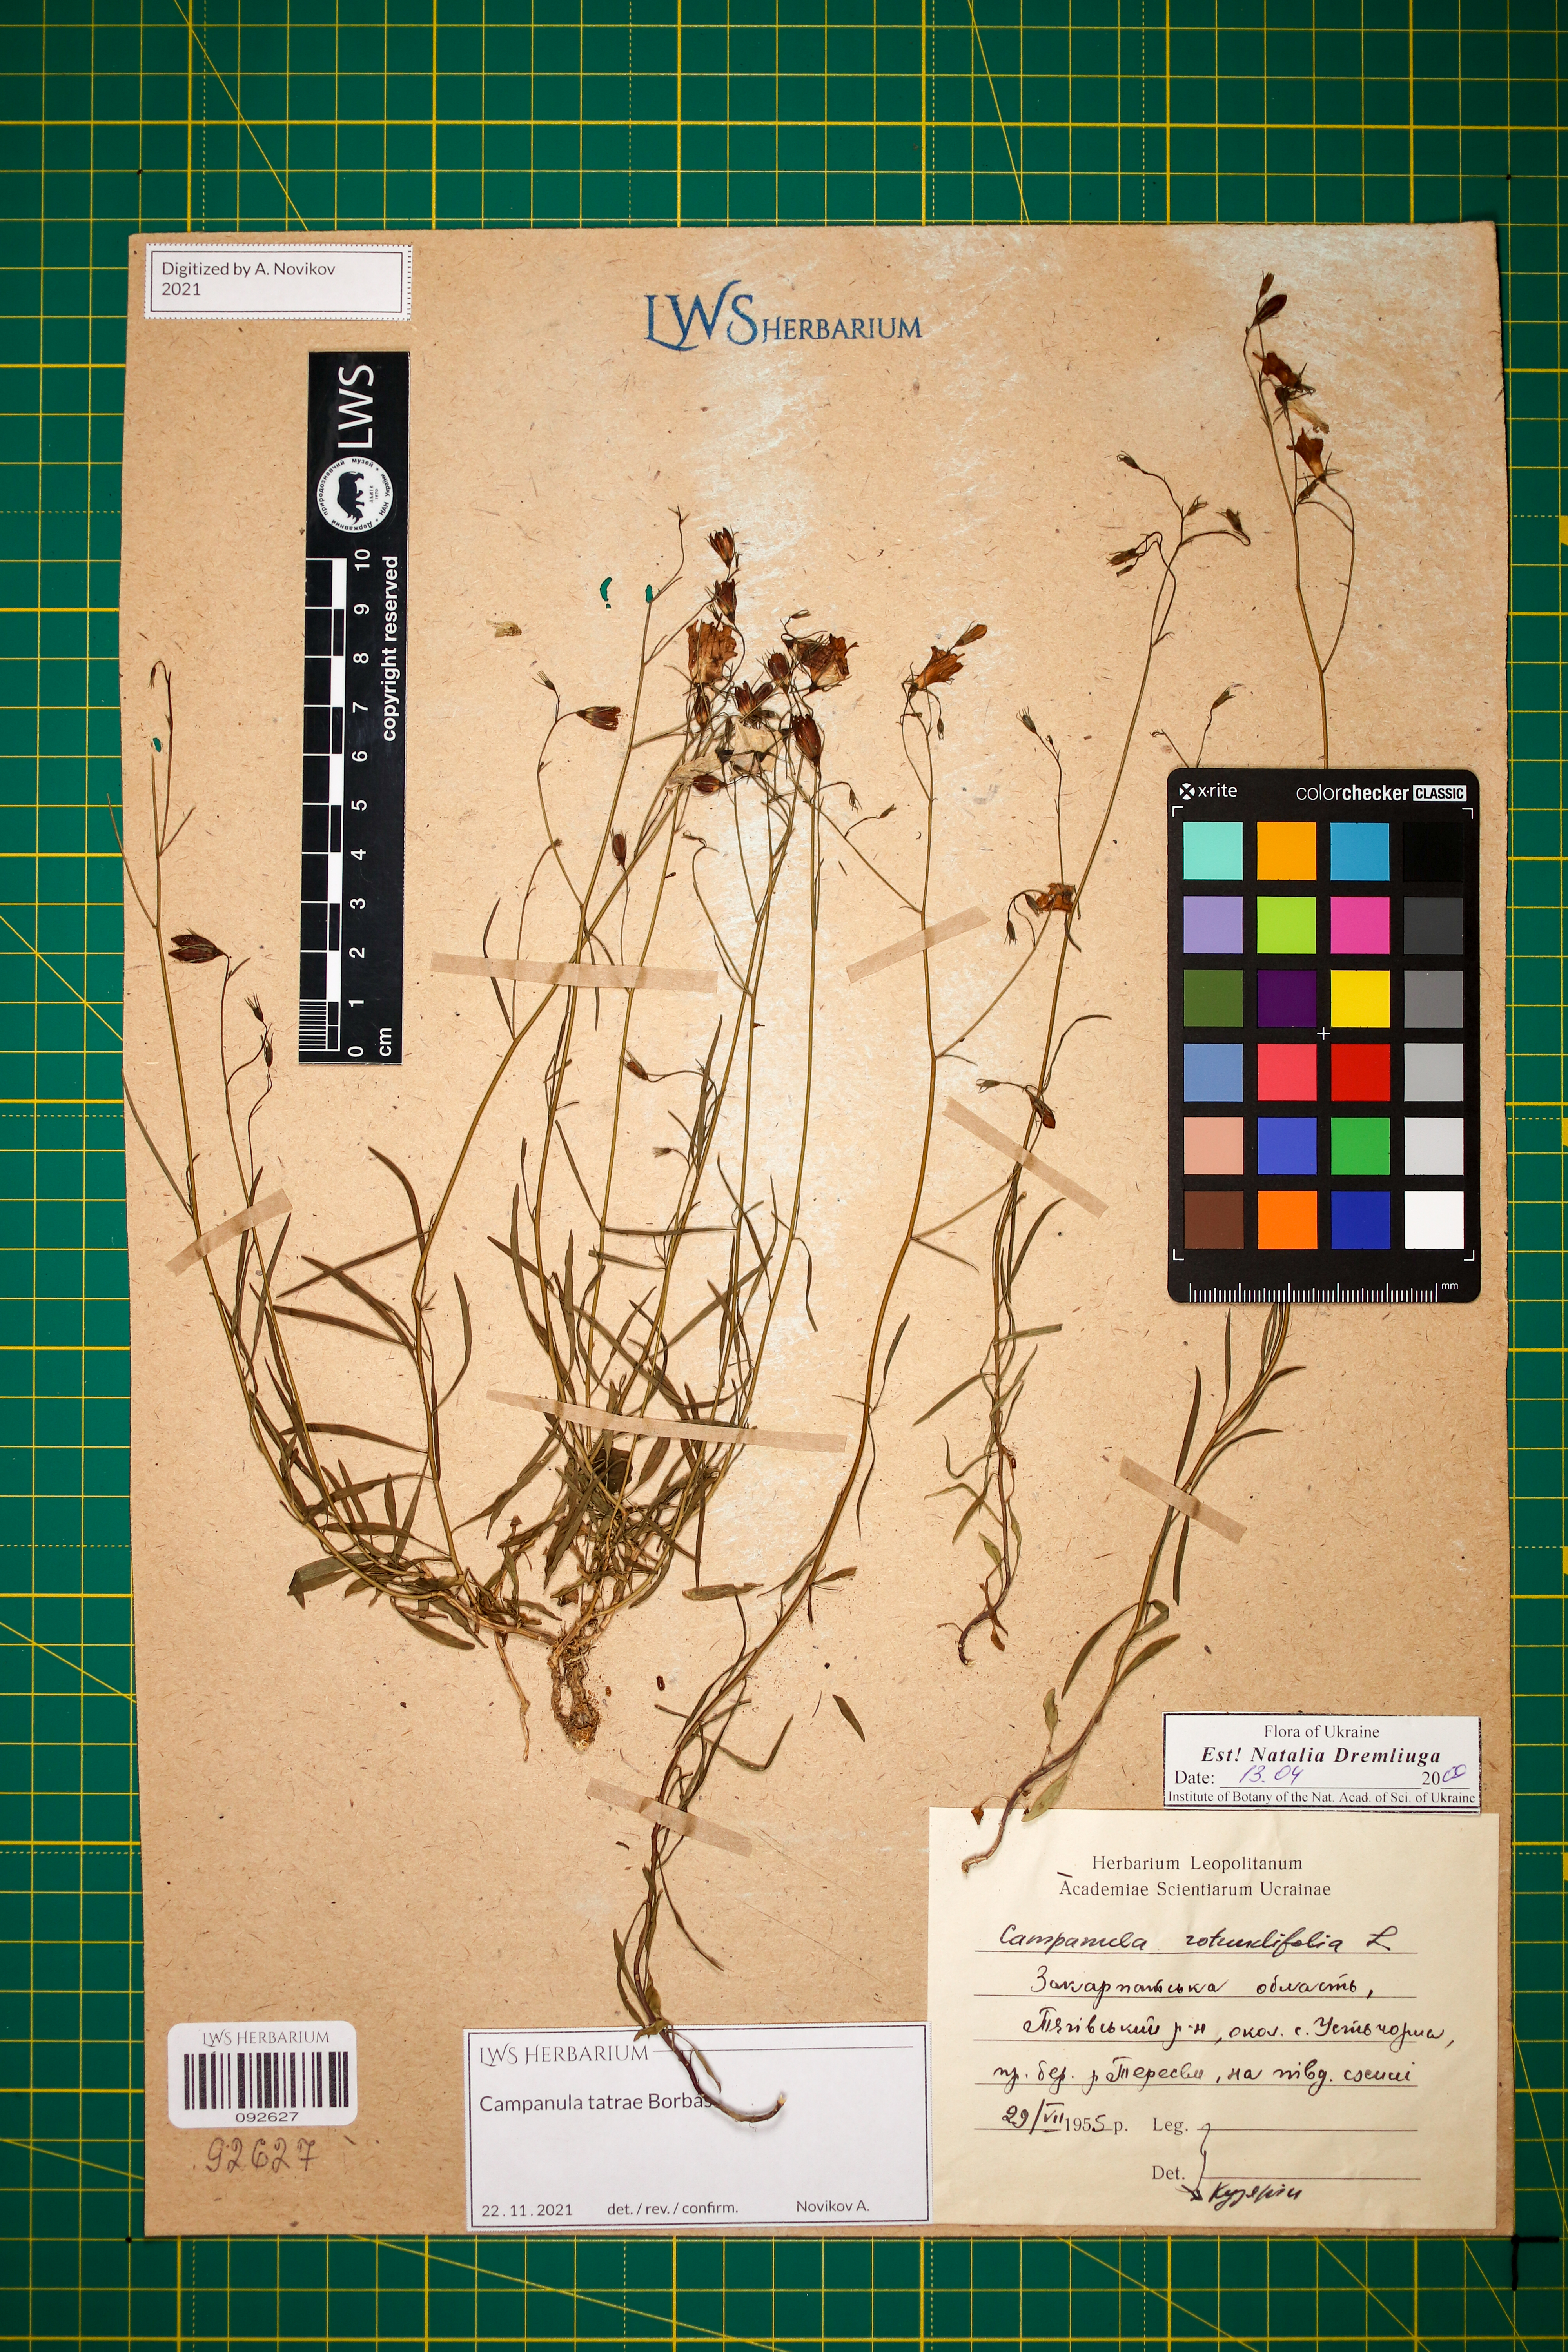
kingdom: Plantae
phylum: Tracheophyta
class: Magnoliopsida
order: Asterales
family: Campanulaceae
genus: Campanula
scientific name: Campanula tatrae
